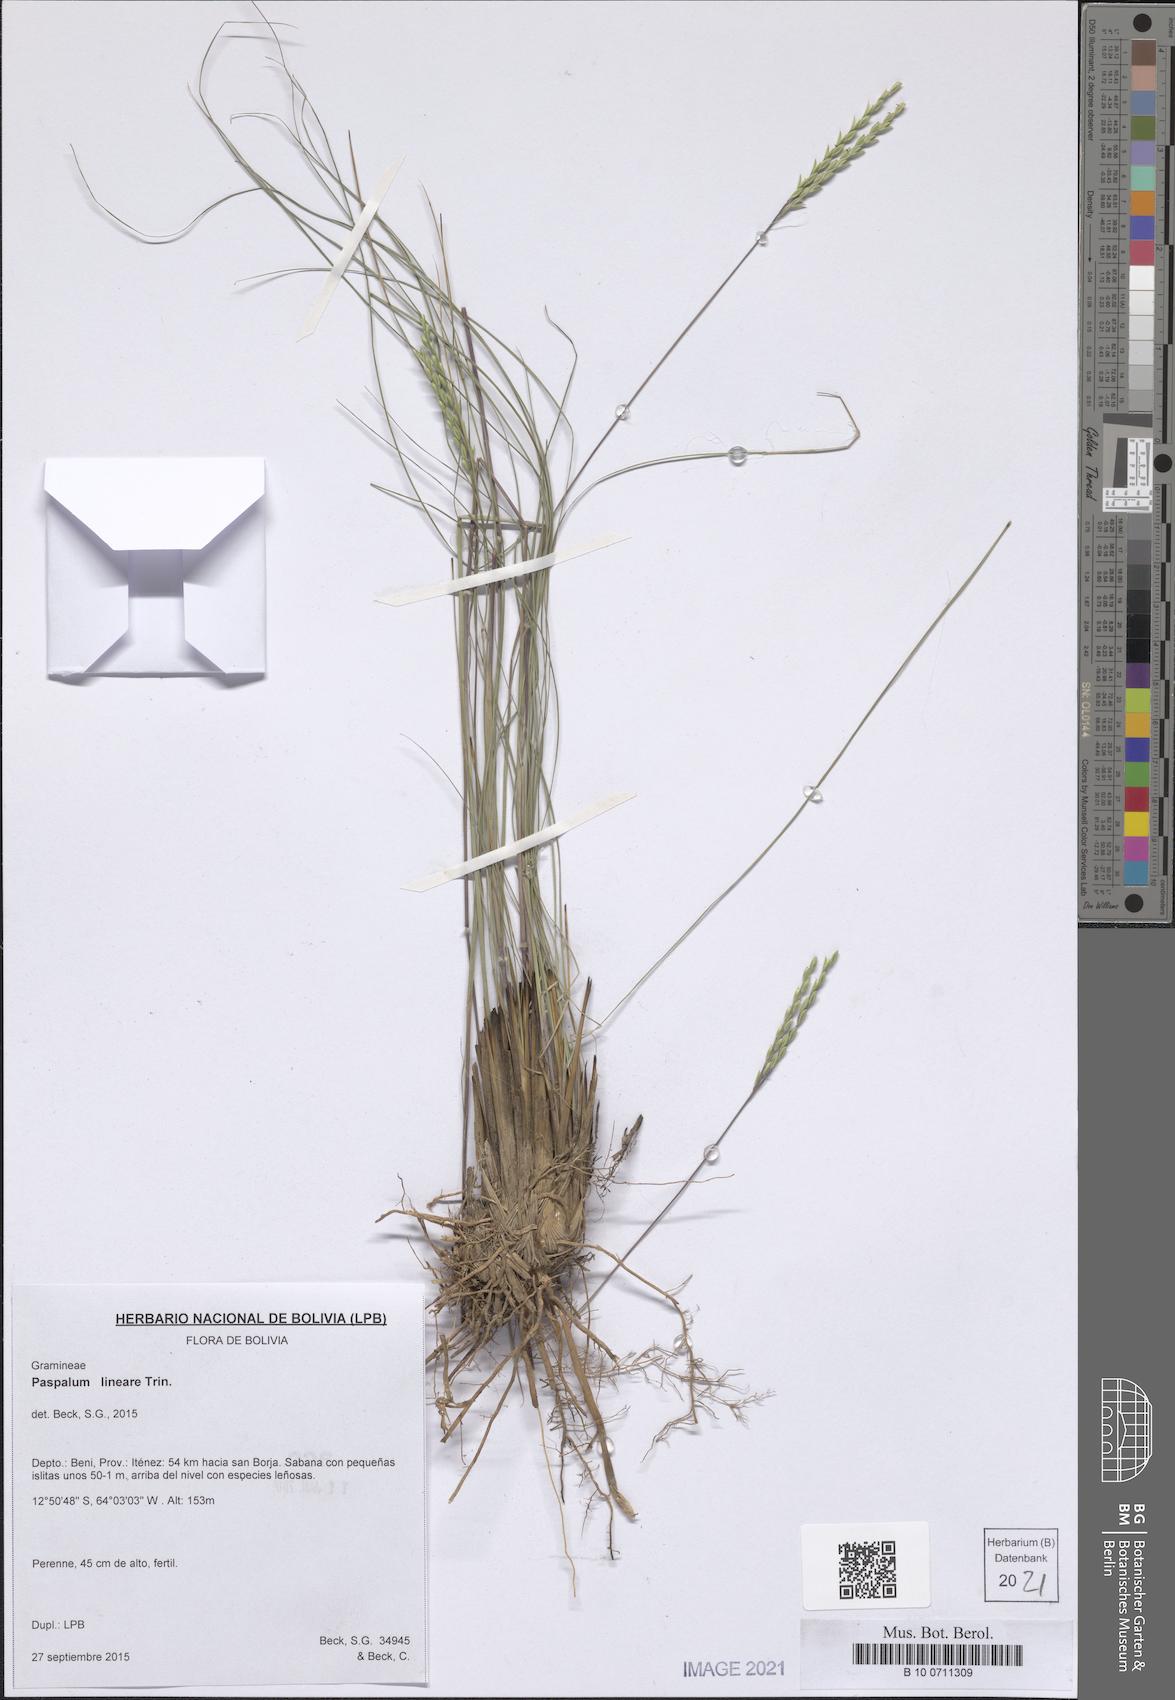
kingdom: Plantae
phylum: Tracheophyta
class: Liliopsida
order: Poales
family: Poaceae
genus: Paspalum
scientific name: Paspalum lineare
